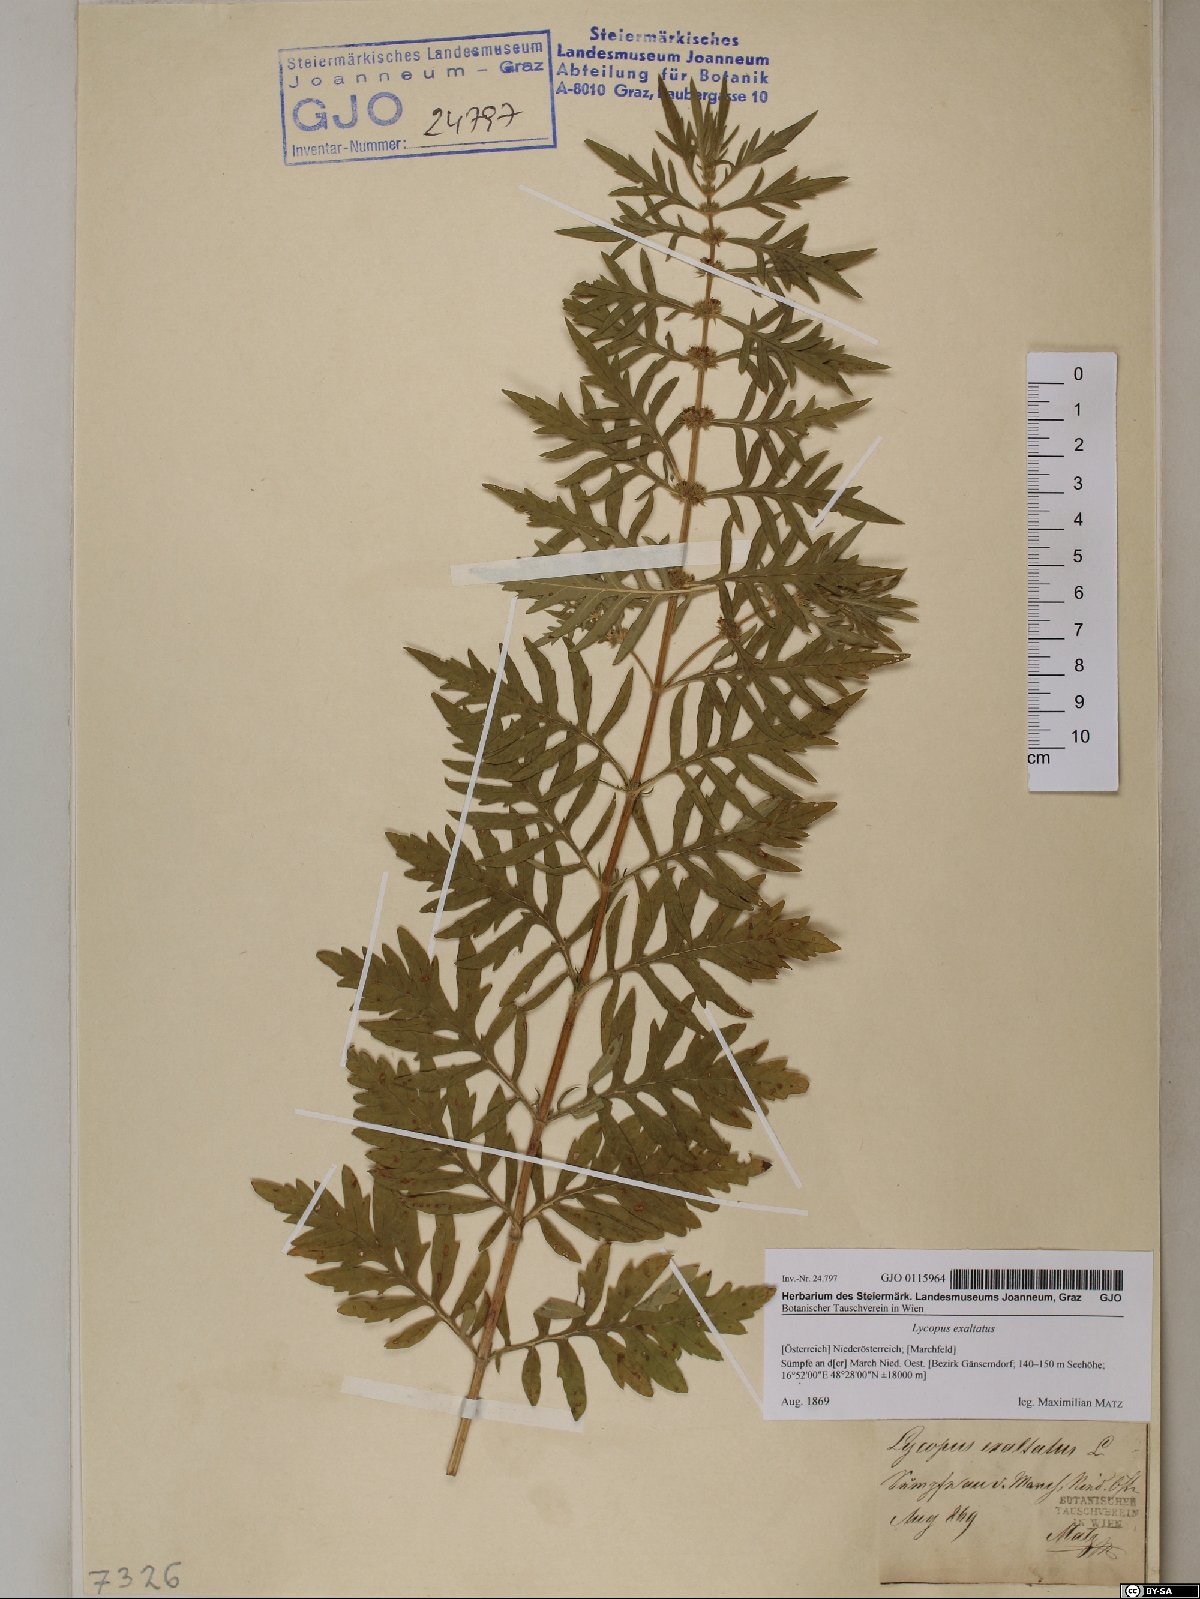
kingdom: Plantae
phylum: Tracheophyta
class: Magnoliopsida
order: Lamiales
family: Lamiaceae
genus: Lycopus
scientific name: Lycopus exaltatus
